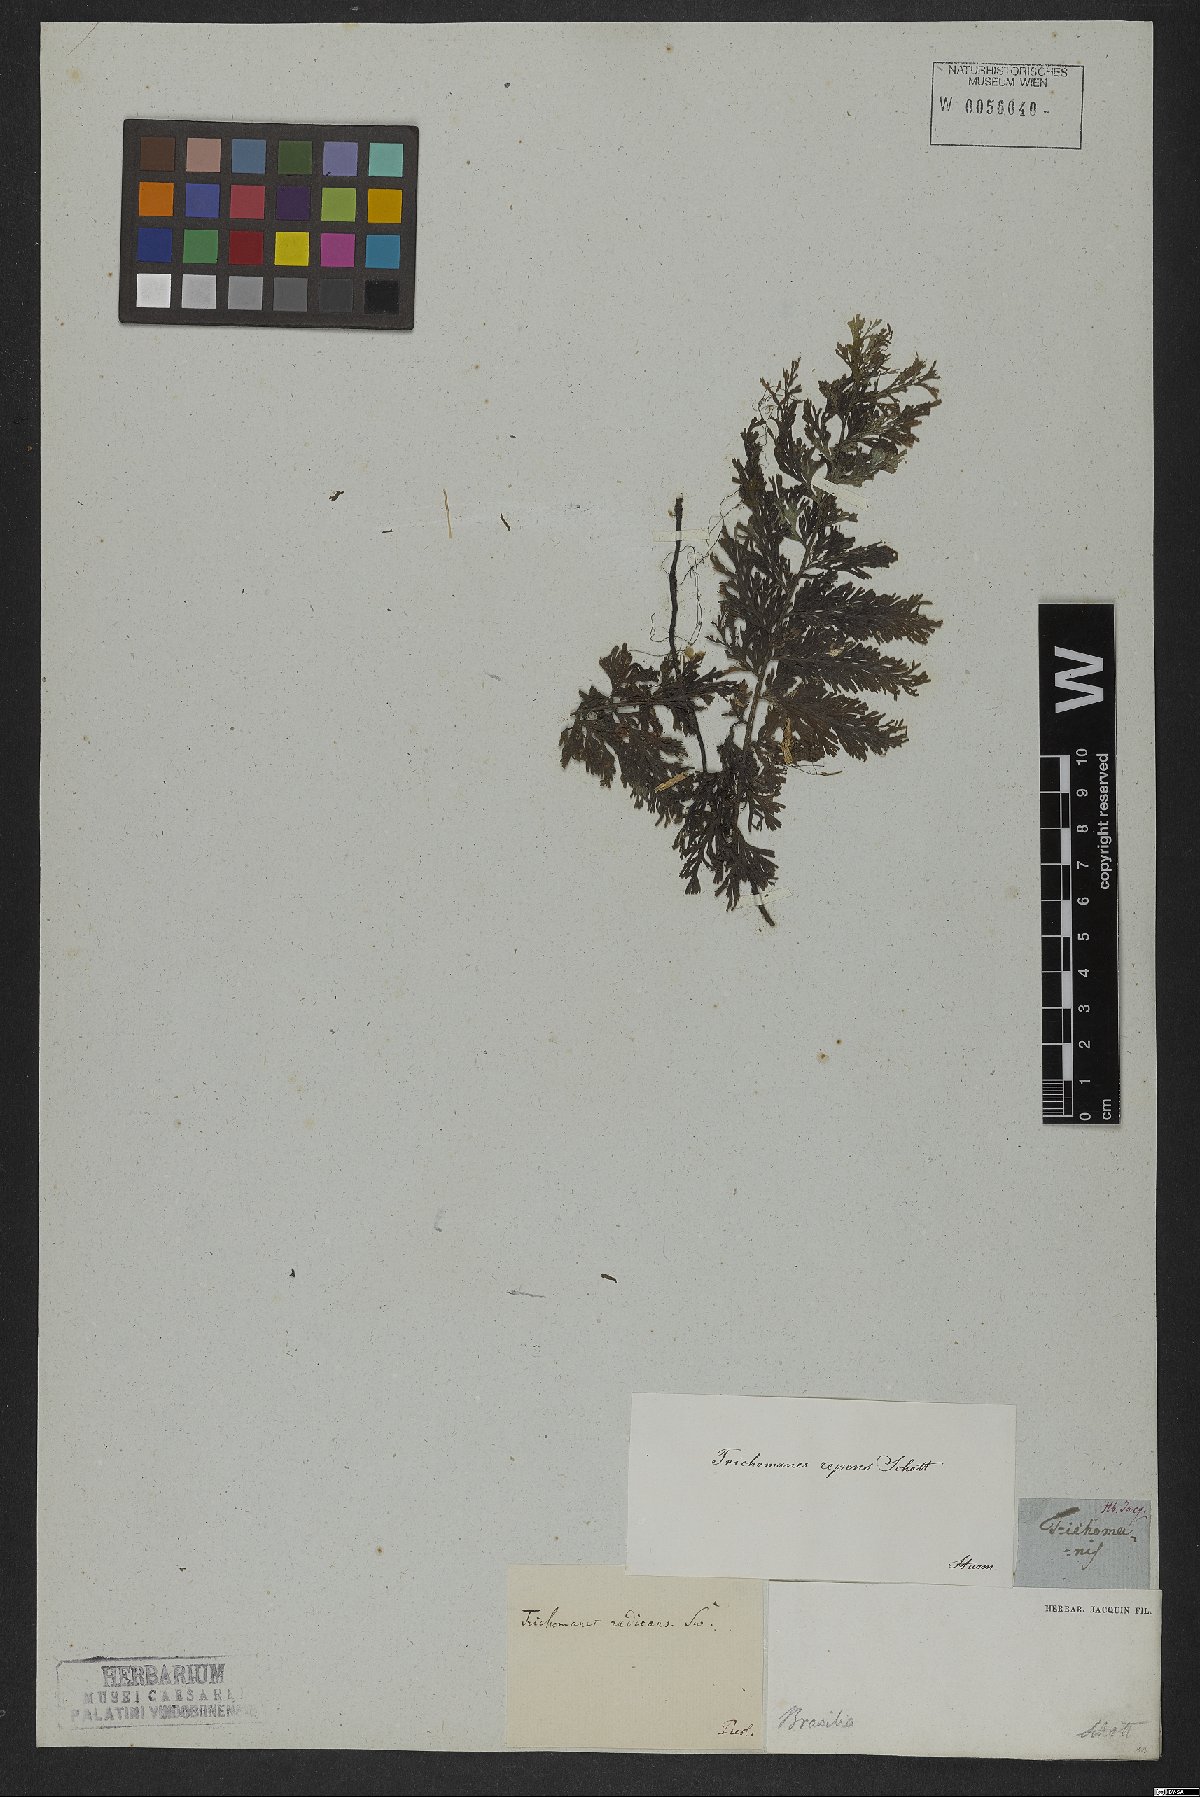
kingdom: Plantae
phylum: Tracheophyta
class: Polypodiopsida
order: Hymenophyllales
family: Hymenophyllaceae
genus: Vandenboschia
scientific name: Vandenboschia radicans
